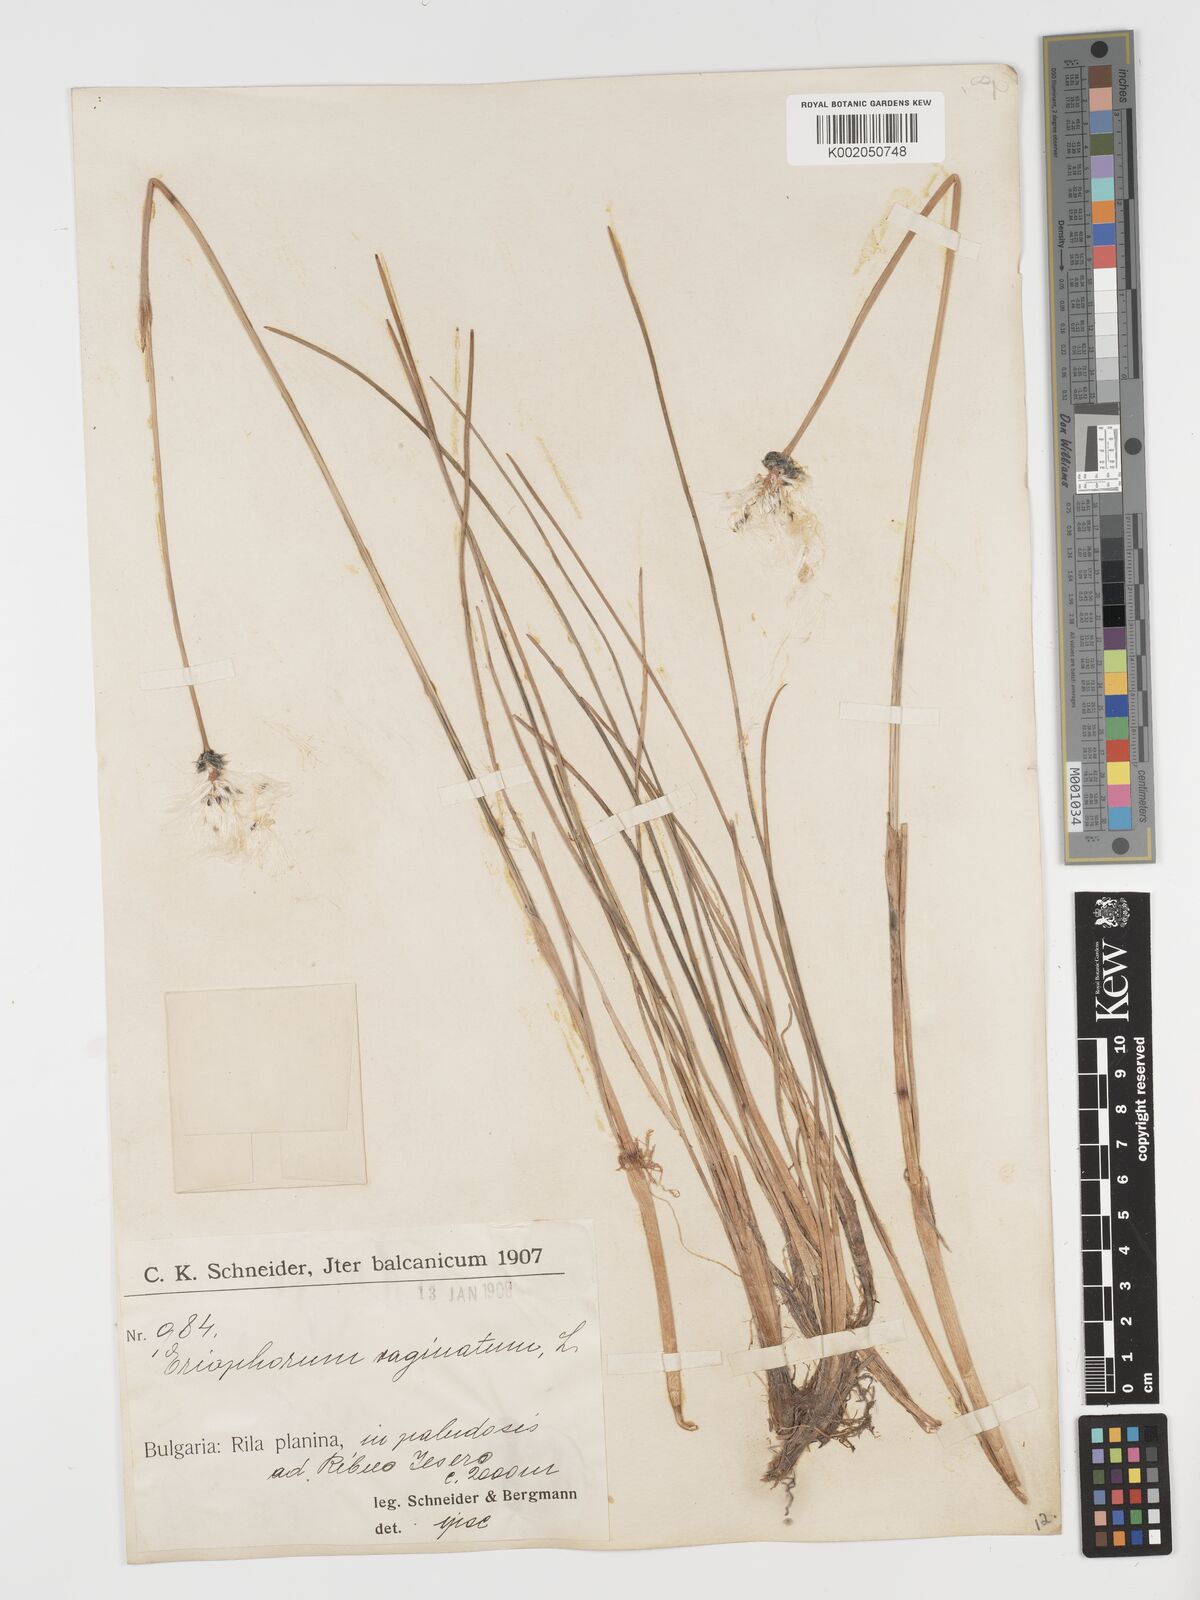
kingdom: Plantae
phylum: Tracheophyta
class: Liliopsida
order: Poales
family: Cyperaceae
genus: Eriophorum
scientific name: Eriophorum vaginatum
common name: Hare's-tail cottongrass
